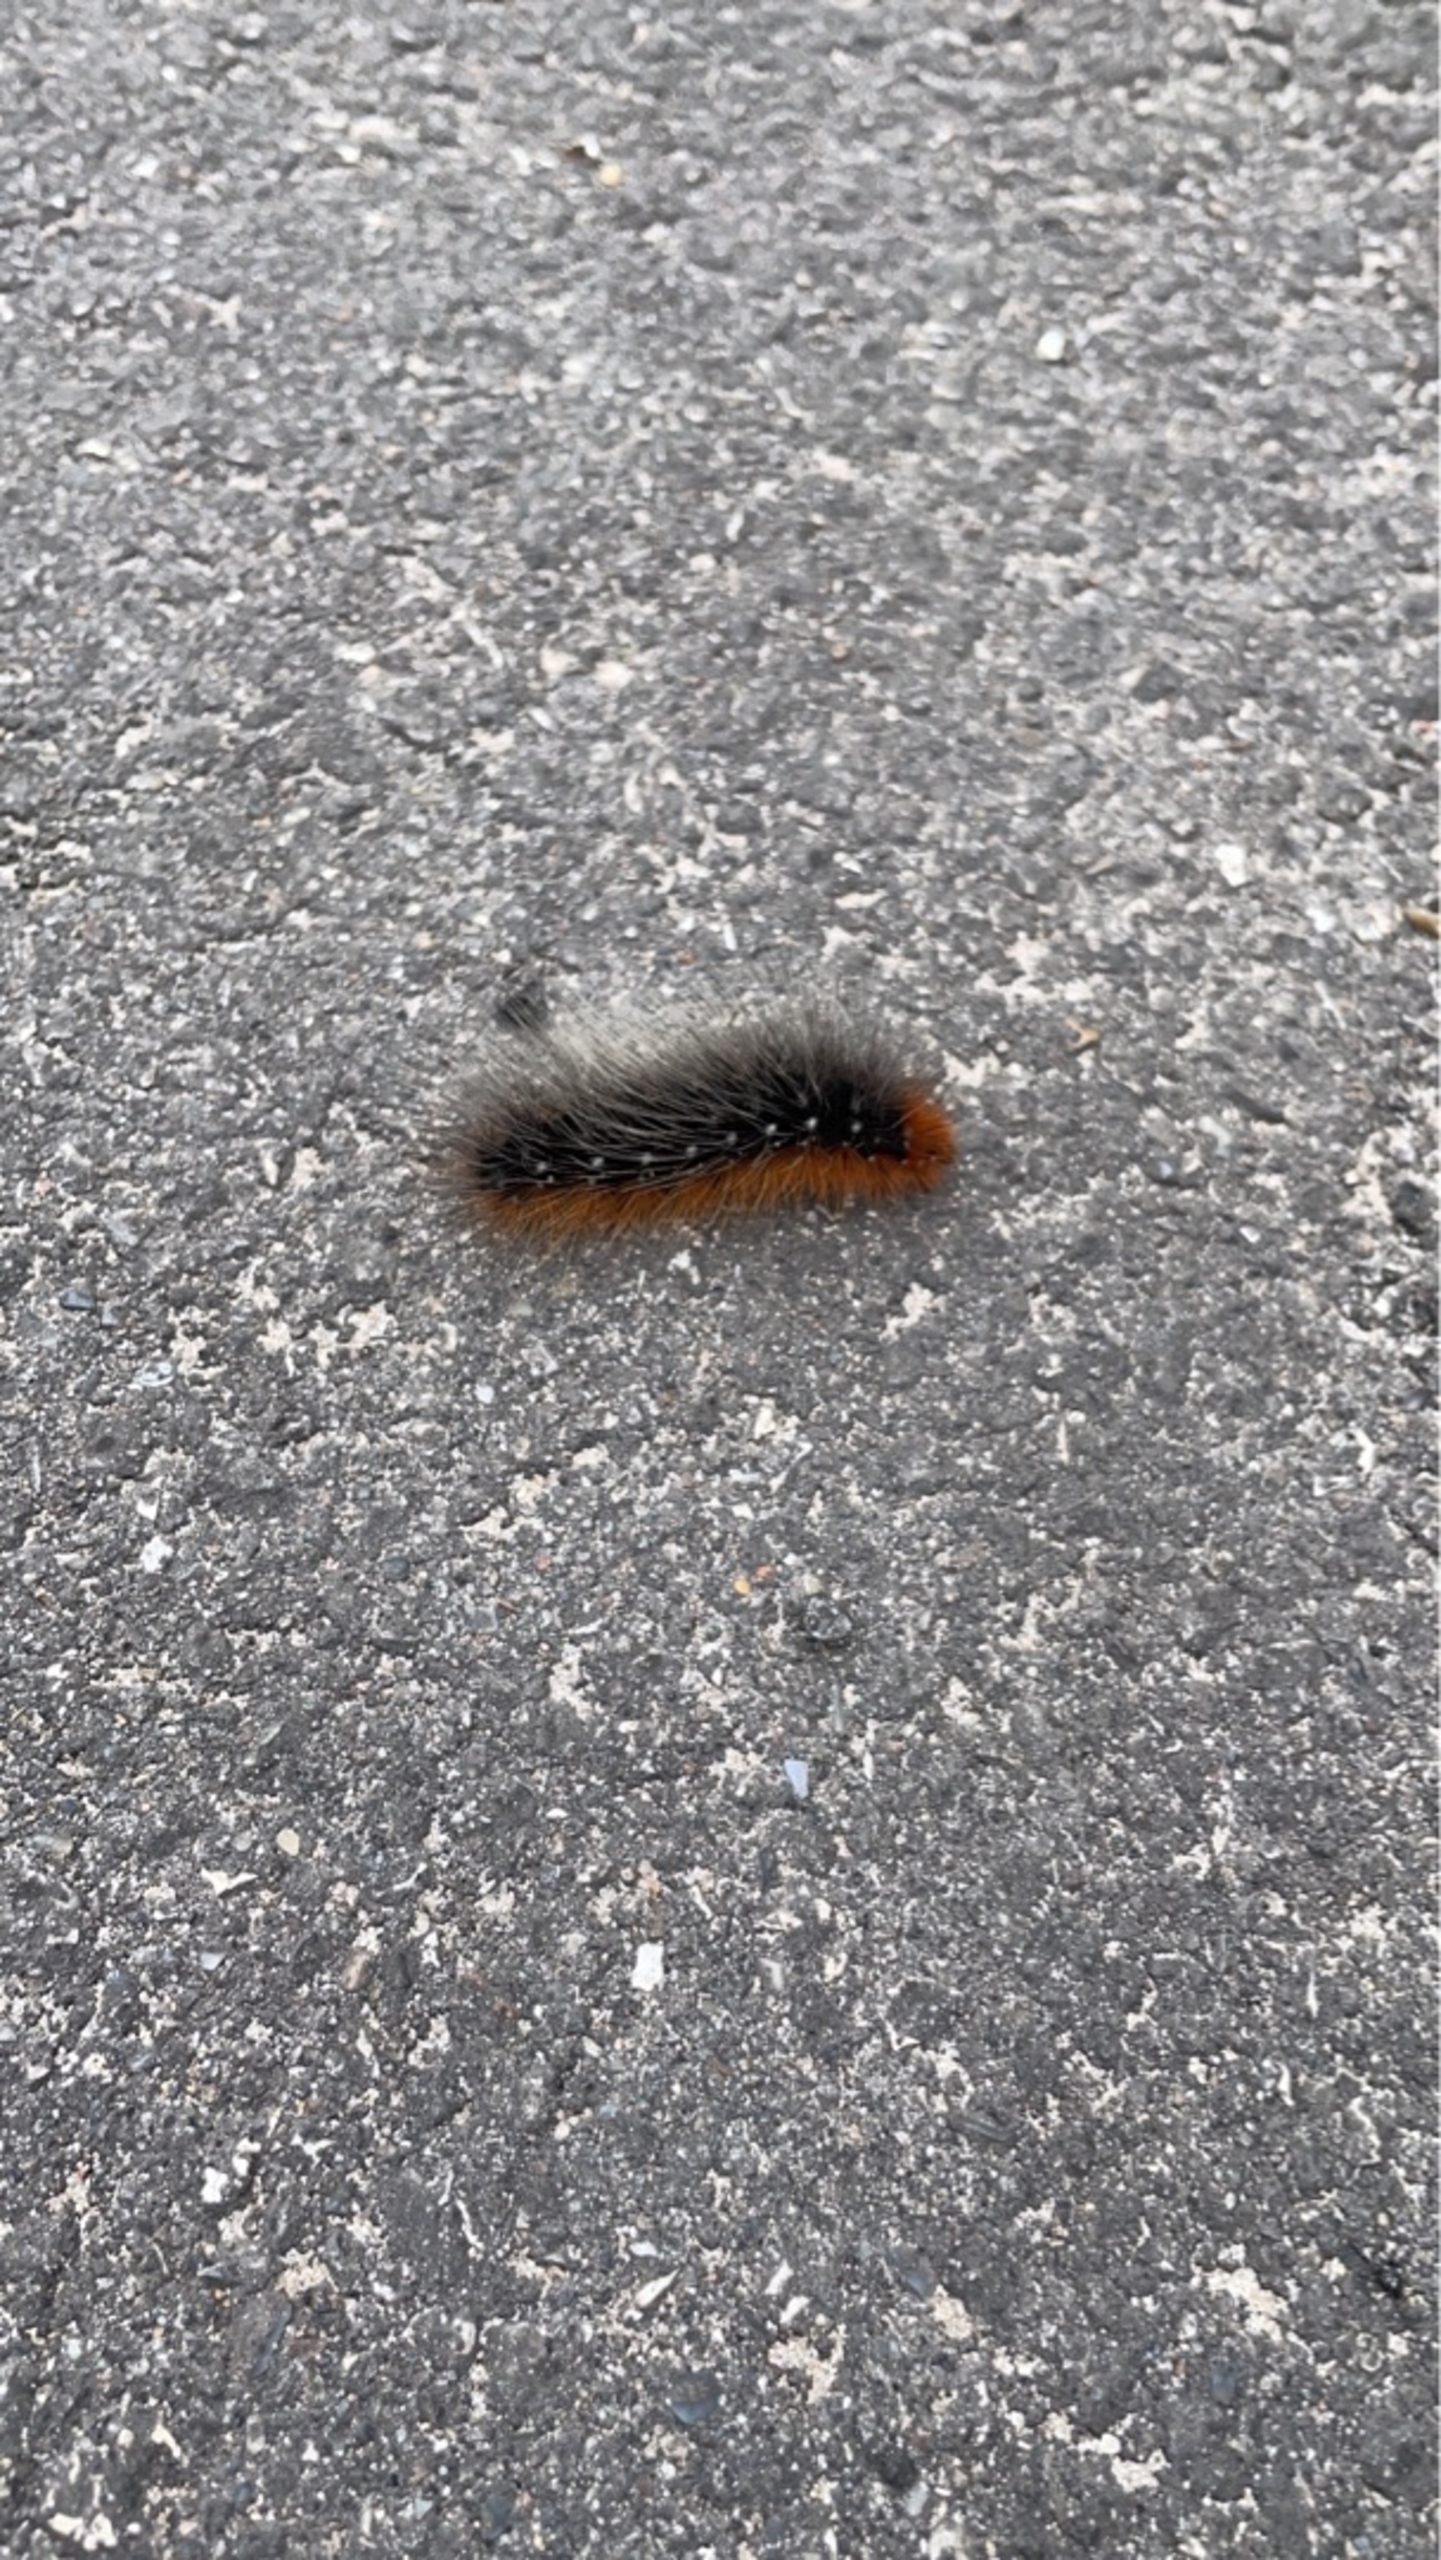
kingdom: Animalia
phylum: Arthropoda
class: Insecta
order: Lepidoptera
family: Erebidae
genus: Arctia
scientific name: Arctia caja
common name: Brun bjørn
